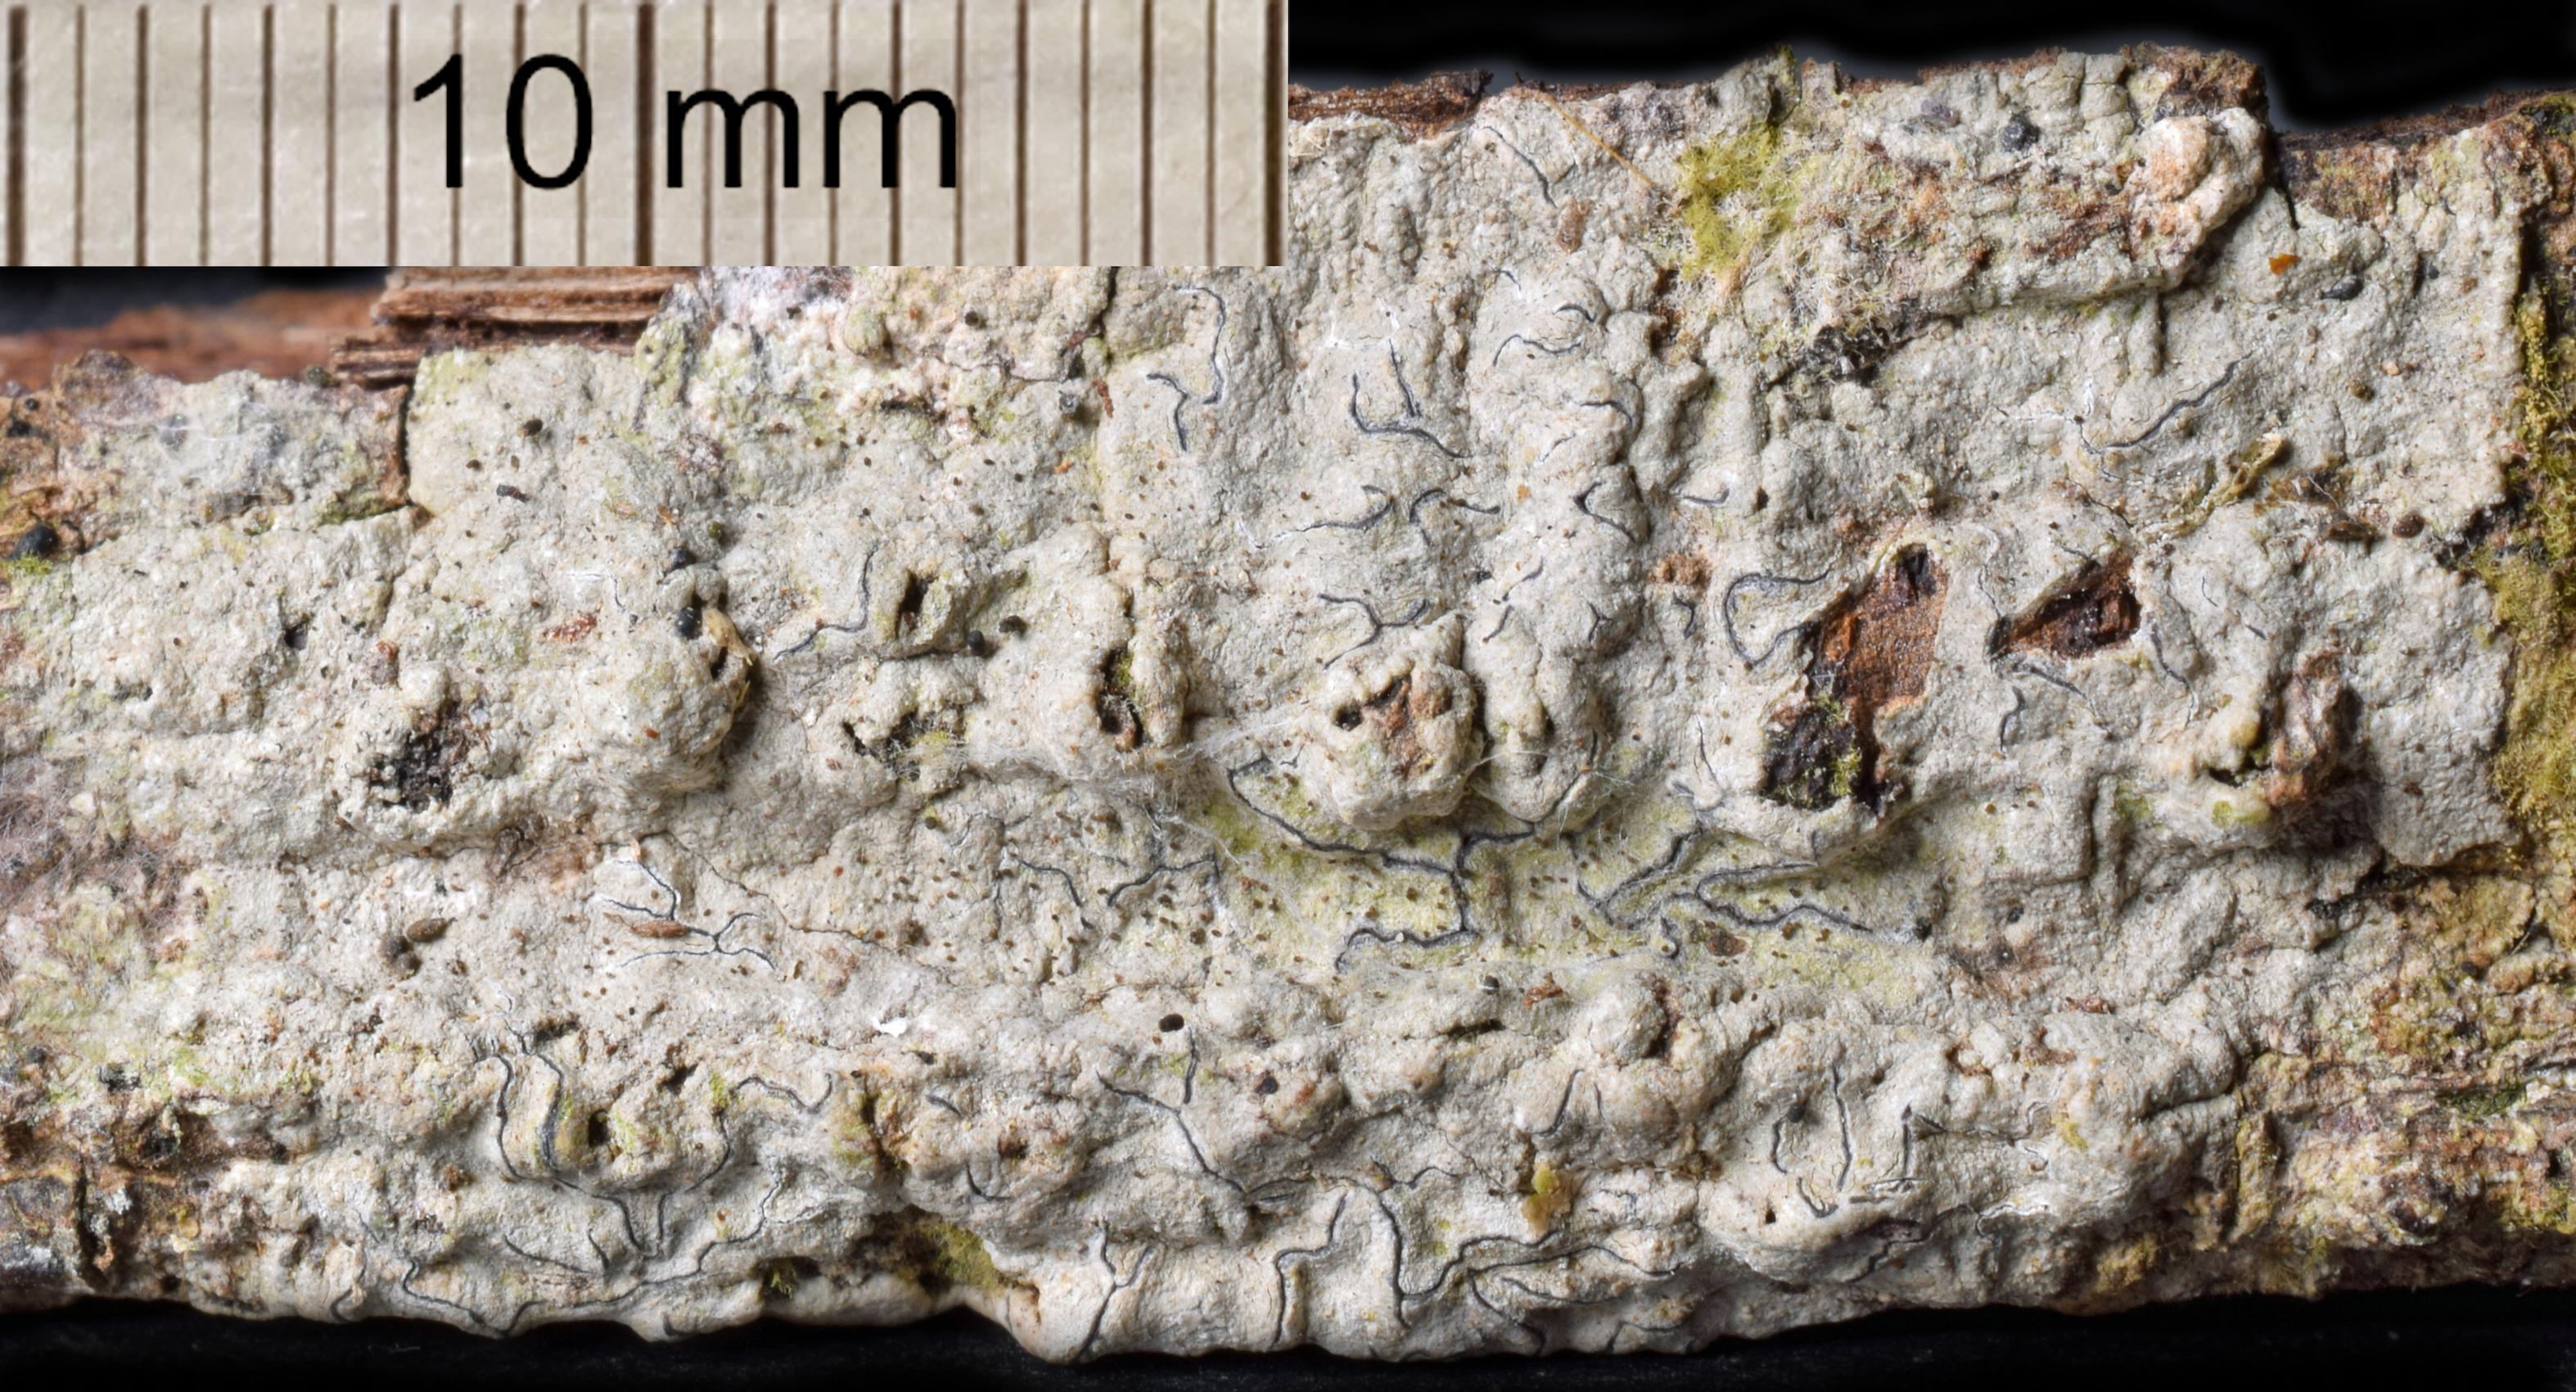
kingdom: Fungi
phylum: Ascomycota
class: Arthoniomycetes
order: Arthoniales
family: Opegraphaceae
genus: Sclerophyton
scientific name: Sclerophyton
